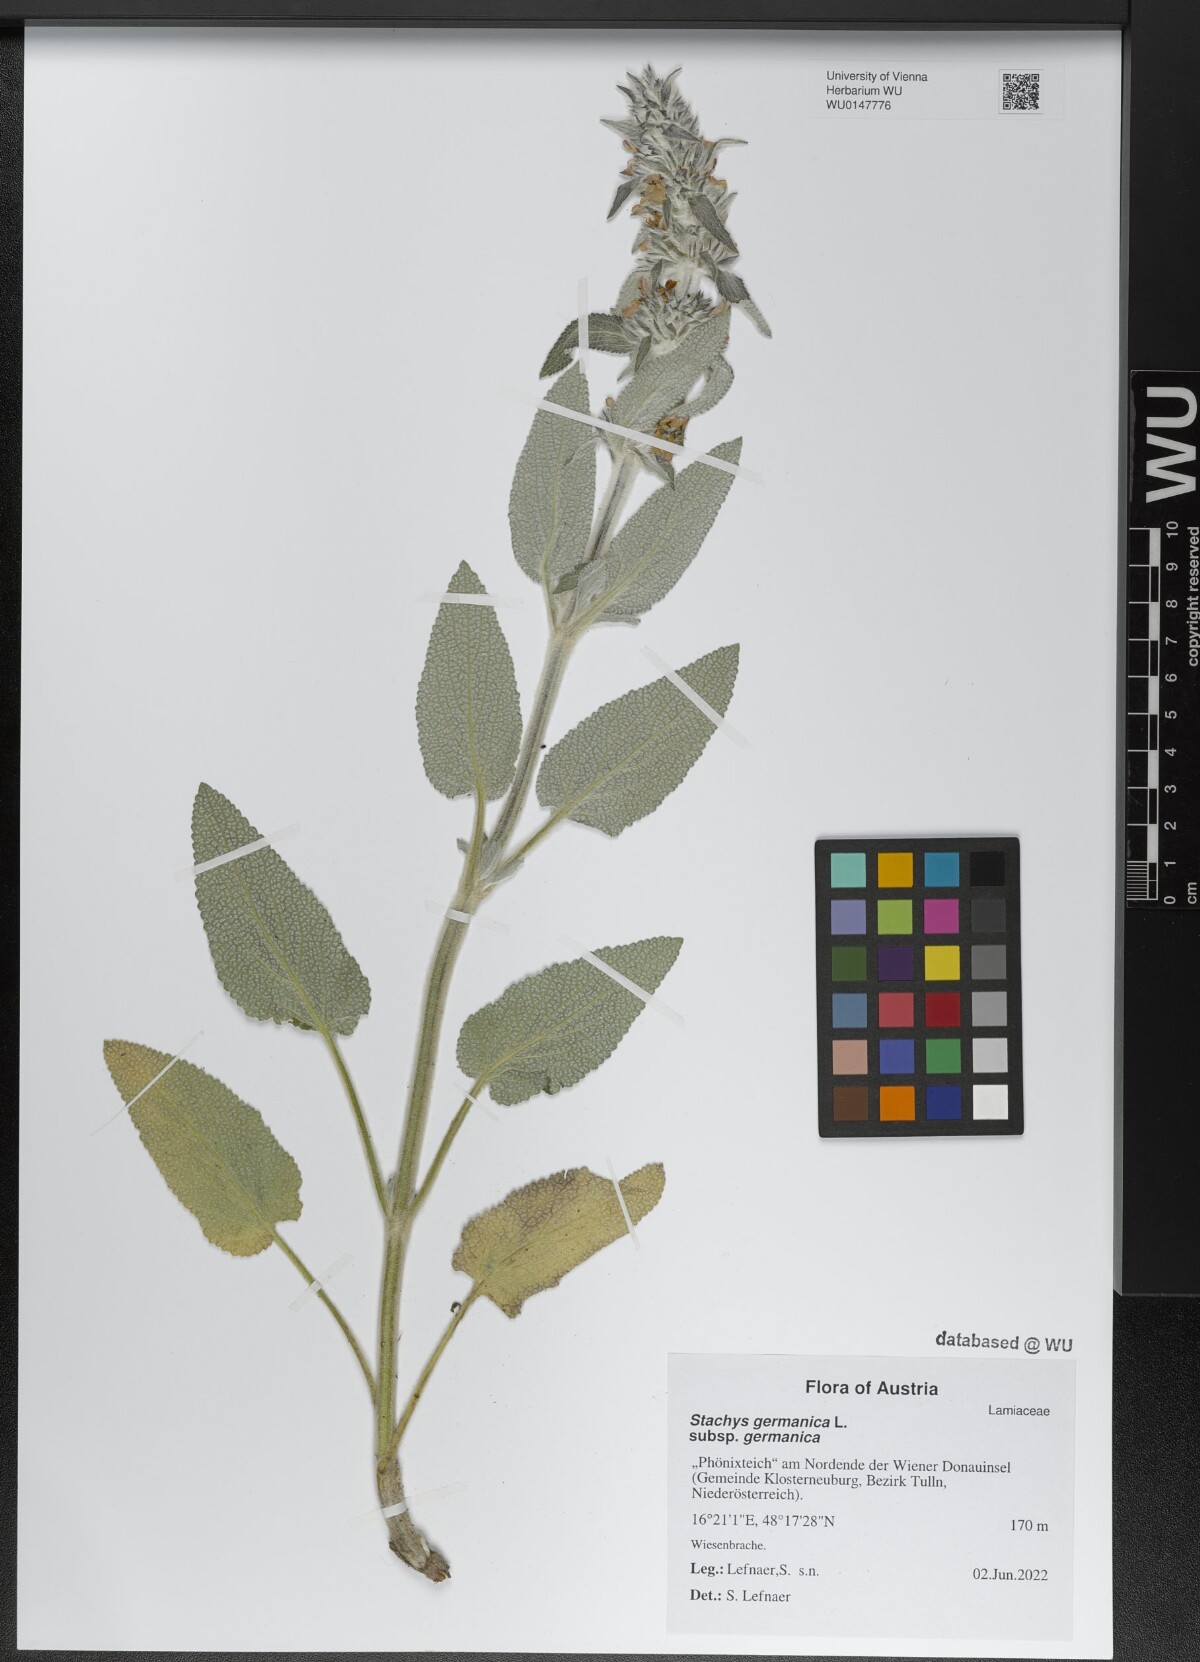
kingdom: Plantae
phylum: Tracheophyta
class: Magnoliopsida
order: Lamiales
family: Lamiaceae
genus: Stachys
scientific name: Stachys germanica
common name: Downy woundwort
